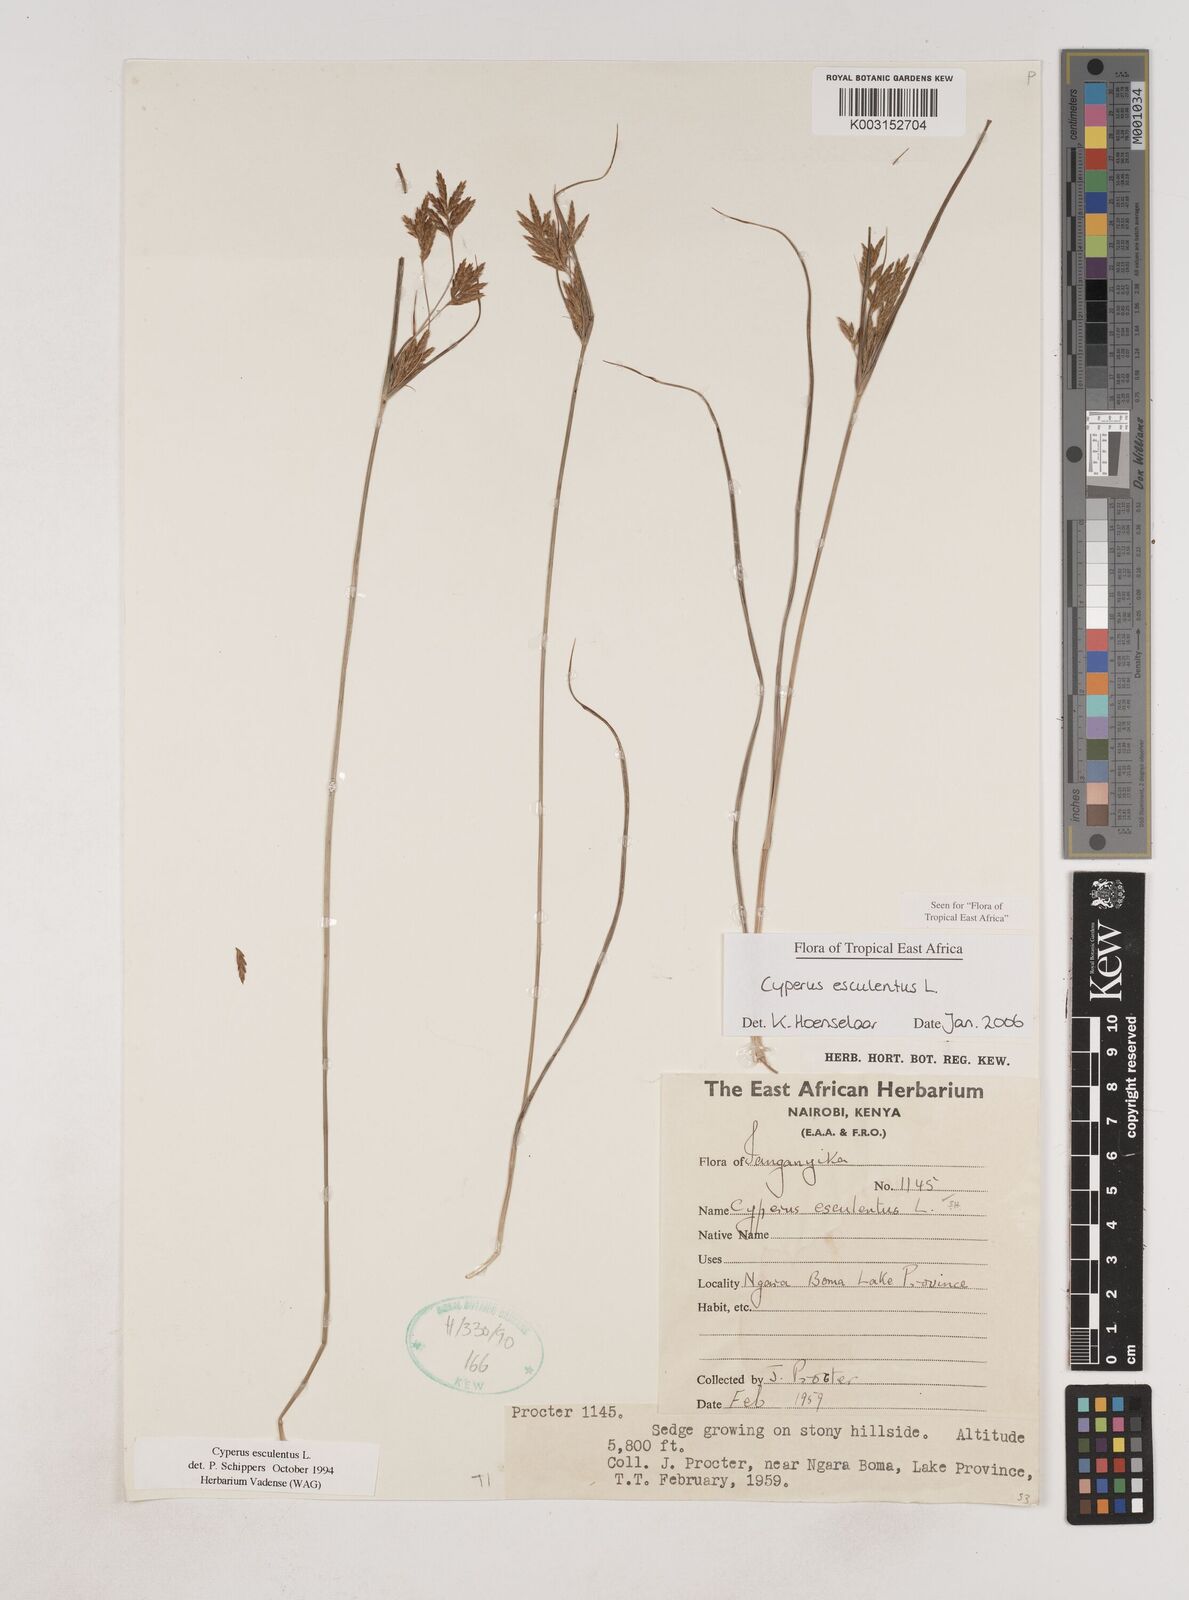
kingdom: Plantae
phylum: Tracheophyta
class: Liliopsida
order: Poales
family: Cyperaceae
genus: Cyperus
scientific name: Cyperus esculentus
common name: Yellow nutsedge
